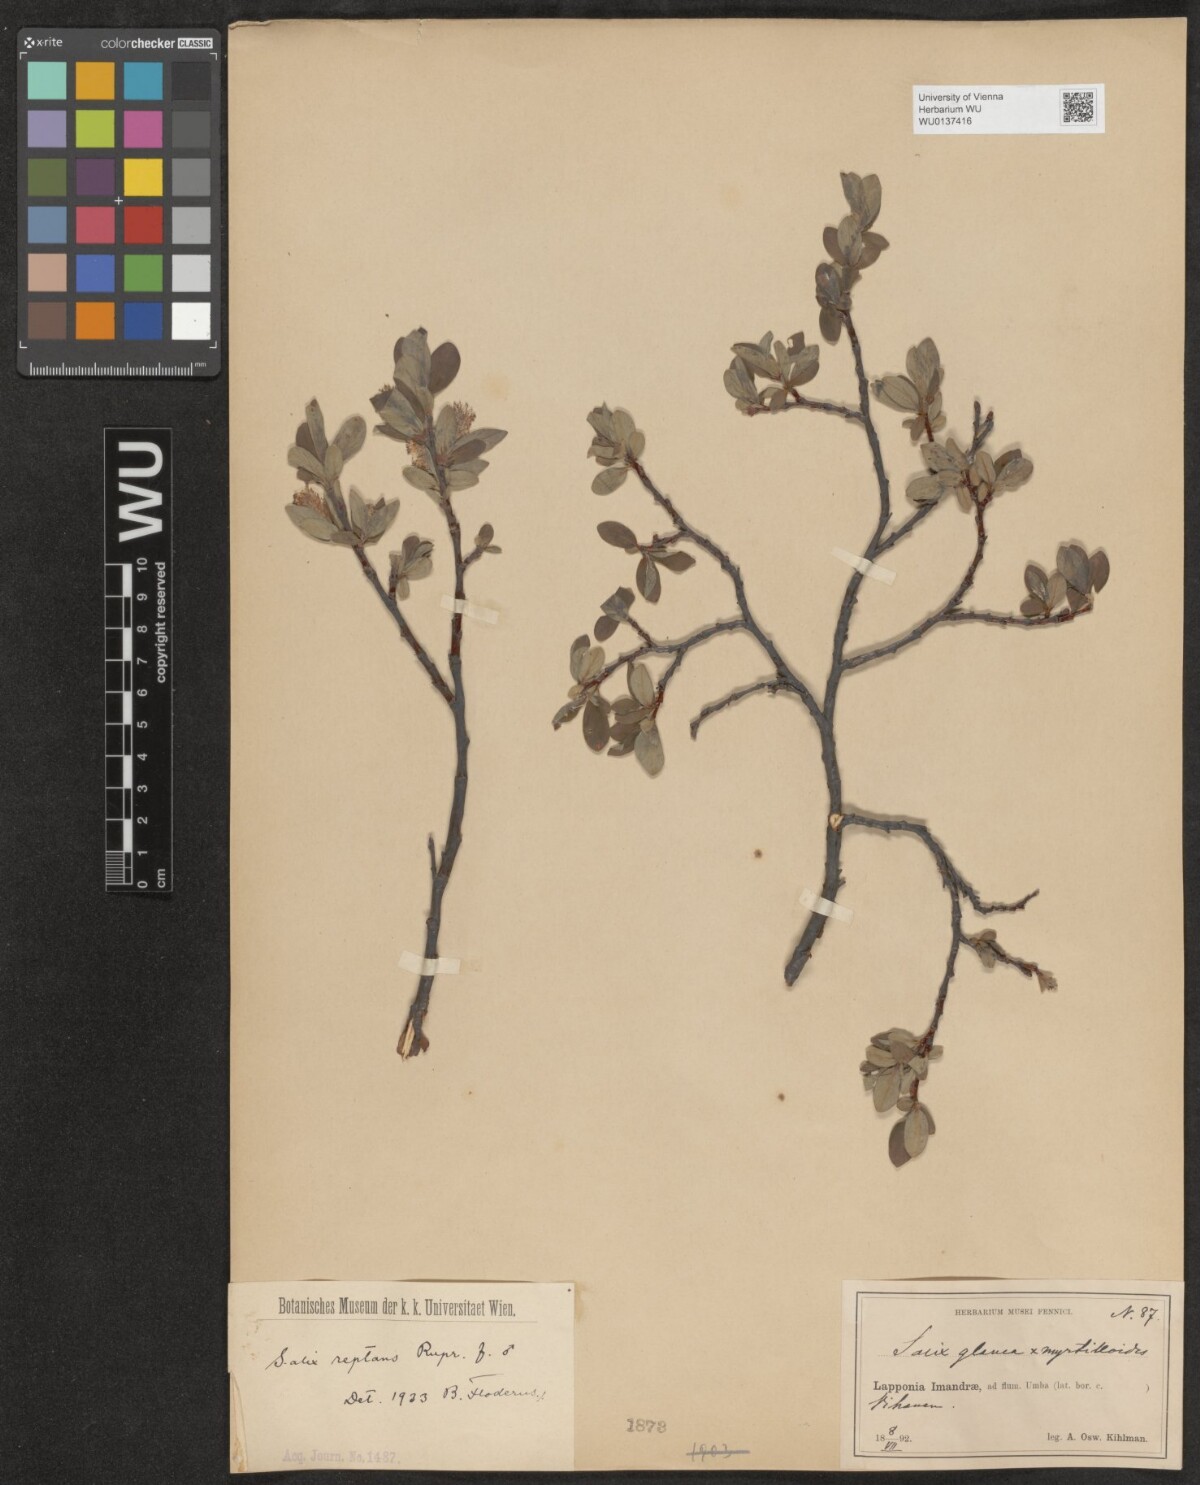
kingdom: Plantae
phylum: Tracheophyta
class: Magnoliopsida
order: Malpighiales
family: Salicaceae
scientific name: Salicaceae
